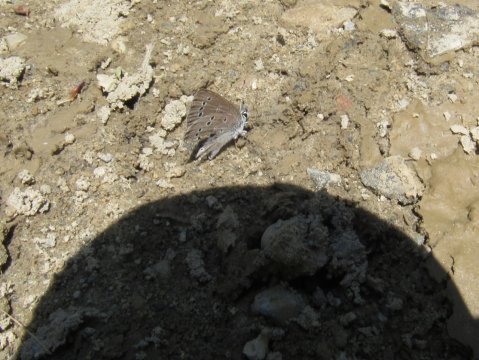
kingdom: Animalia
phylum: Arthropoda
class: Insecta
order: Lepidoptera
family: Lycaenidae
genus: Glaucopsyche
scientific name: Glaucopsyche lygdamus
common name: Silvery Blue
